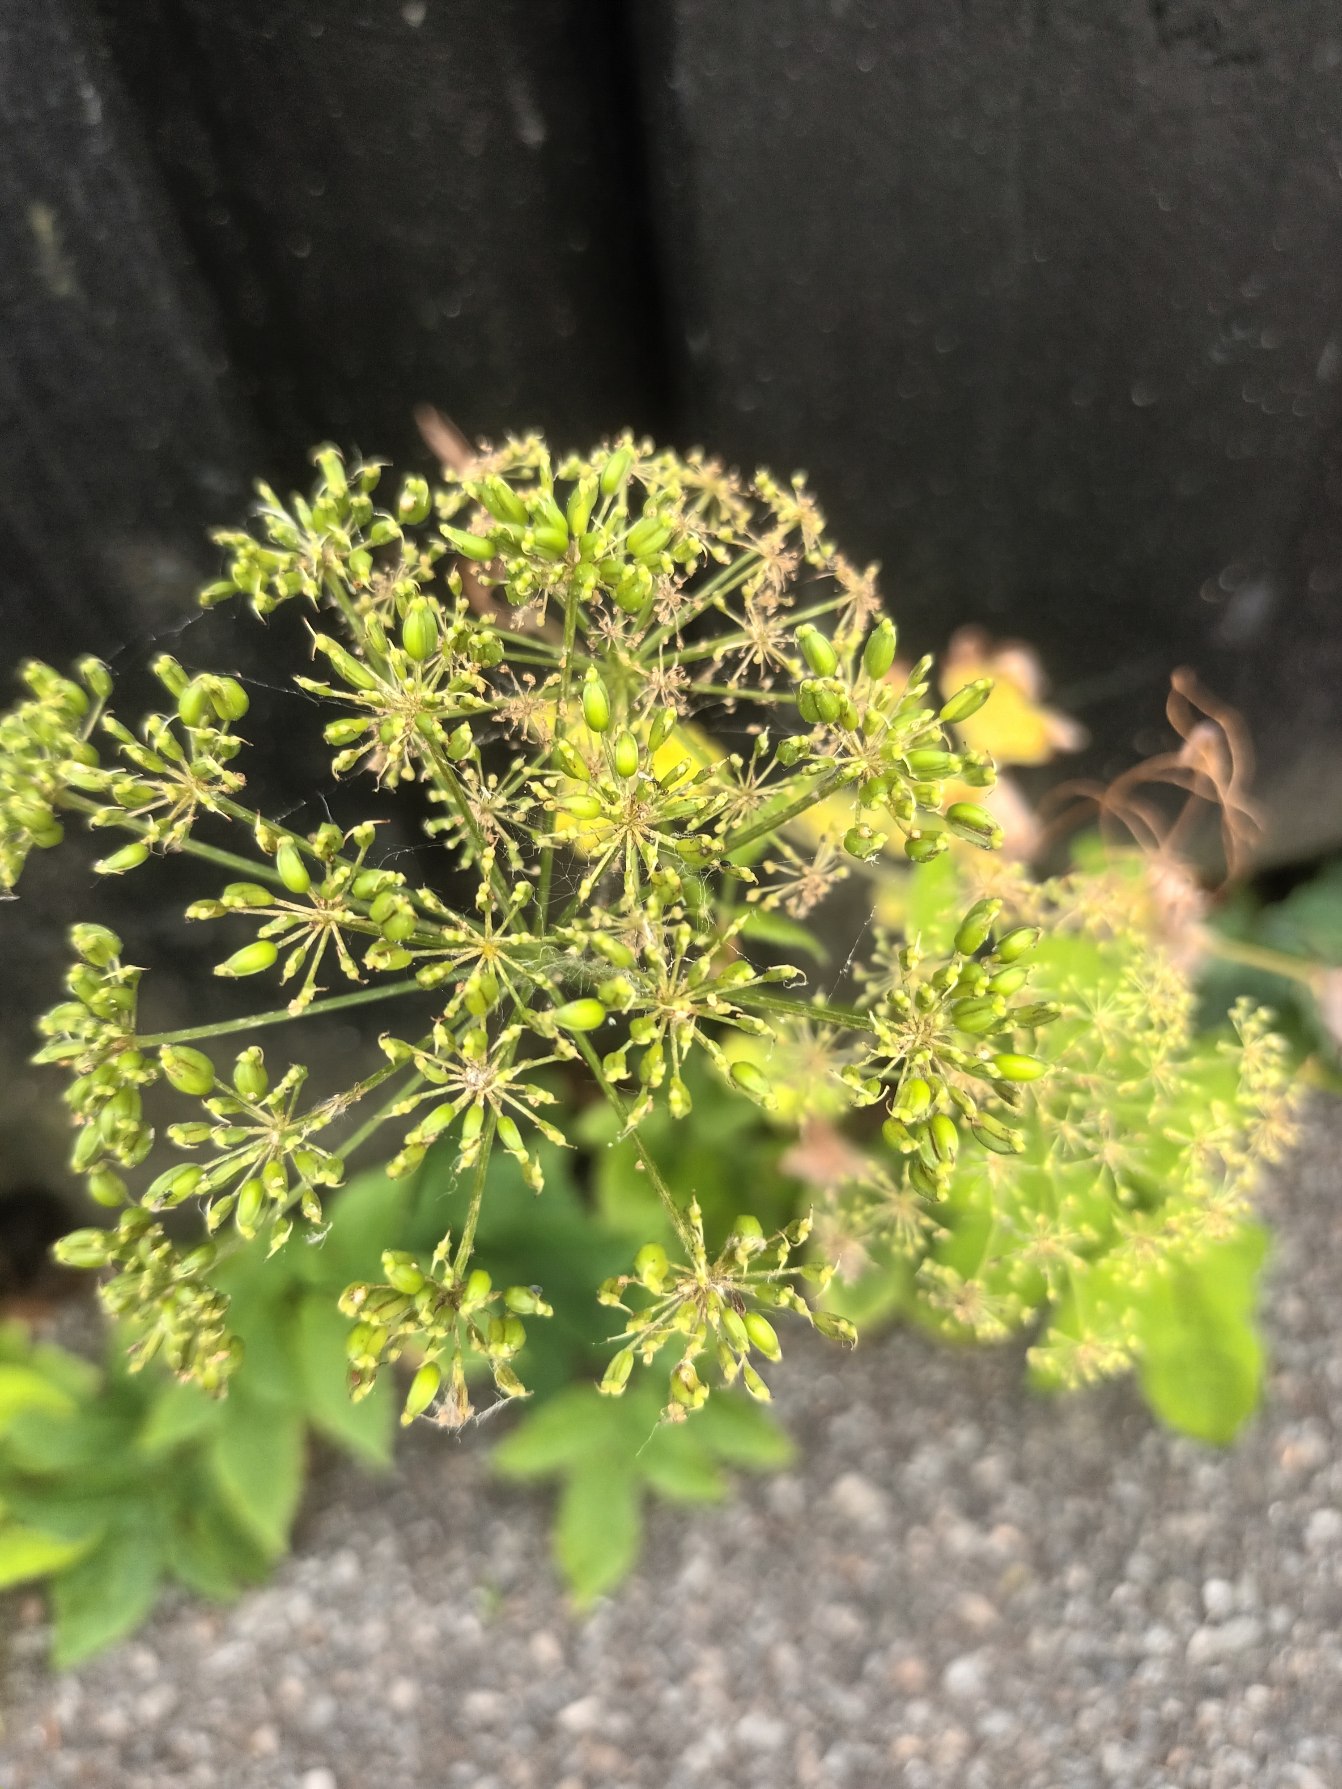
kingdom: Plantae
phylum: Tracheophyta
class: Magnoliopsida
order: Apiales
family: Apiaceae
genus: Aegopodium
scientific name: Aegopodium podagraria
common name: Skvalderkål
